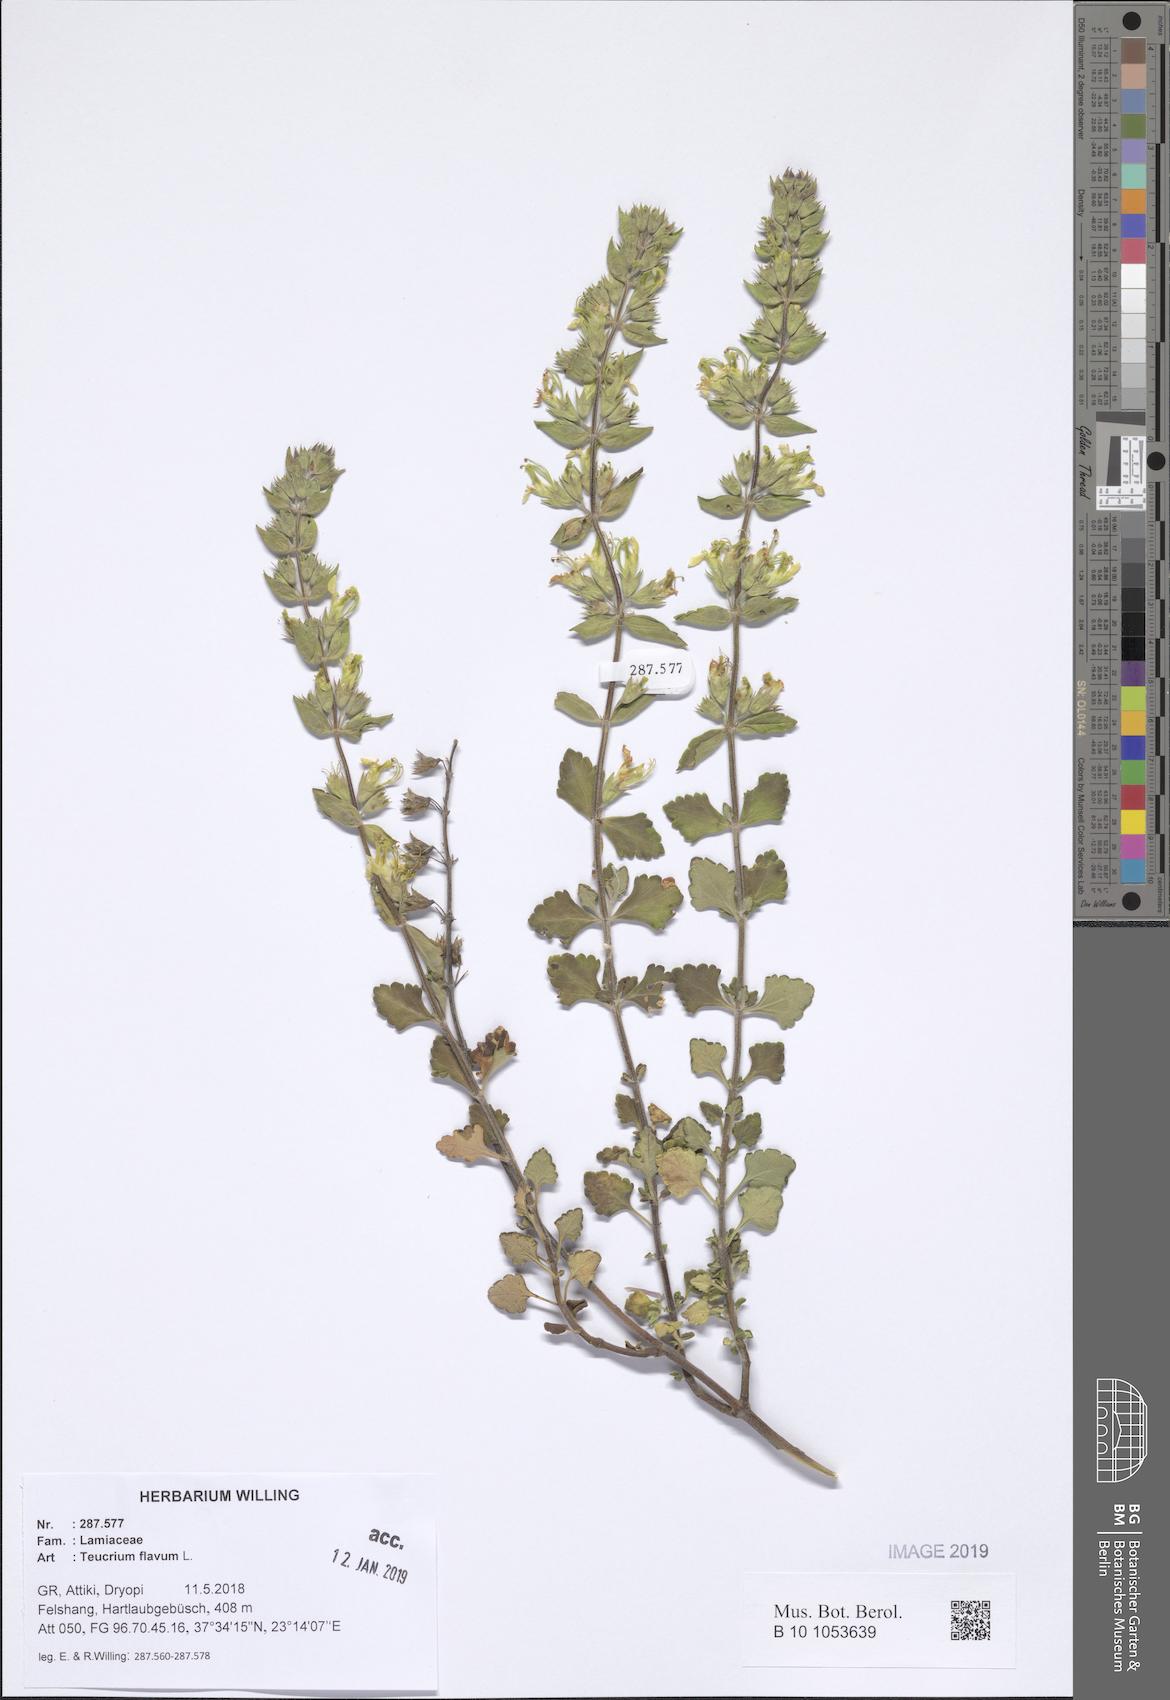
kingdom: Plantae
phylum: Tracheophyta
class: Magnoliopsida
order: Lamiales
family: Lamiaceae
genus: Teucrium
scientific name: Teucrium flavum
